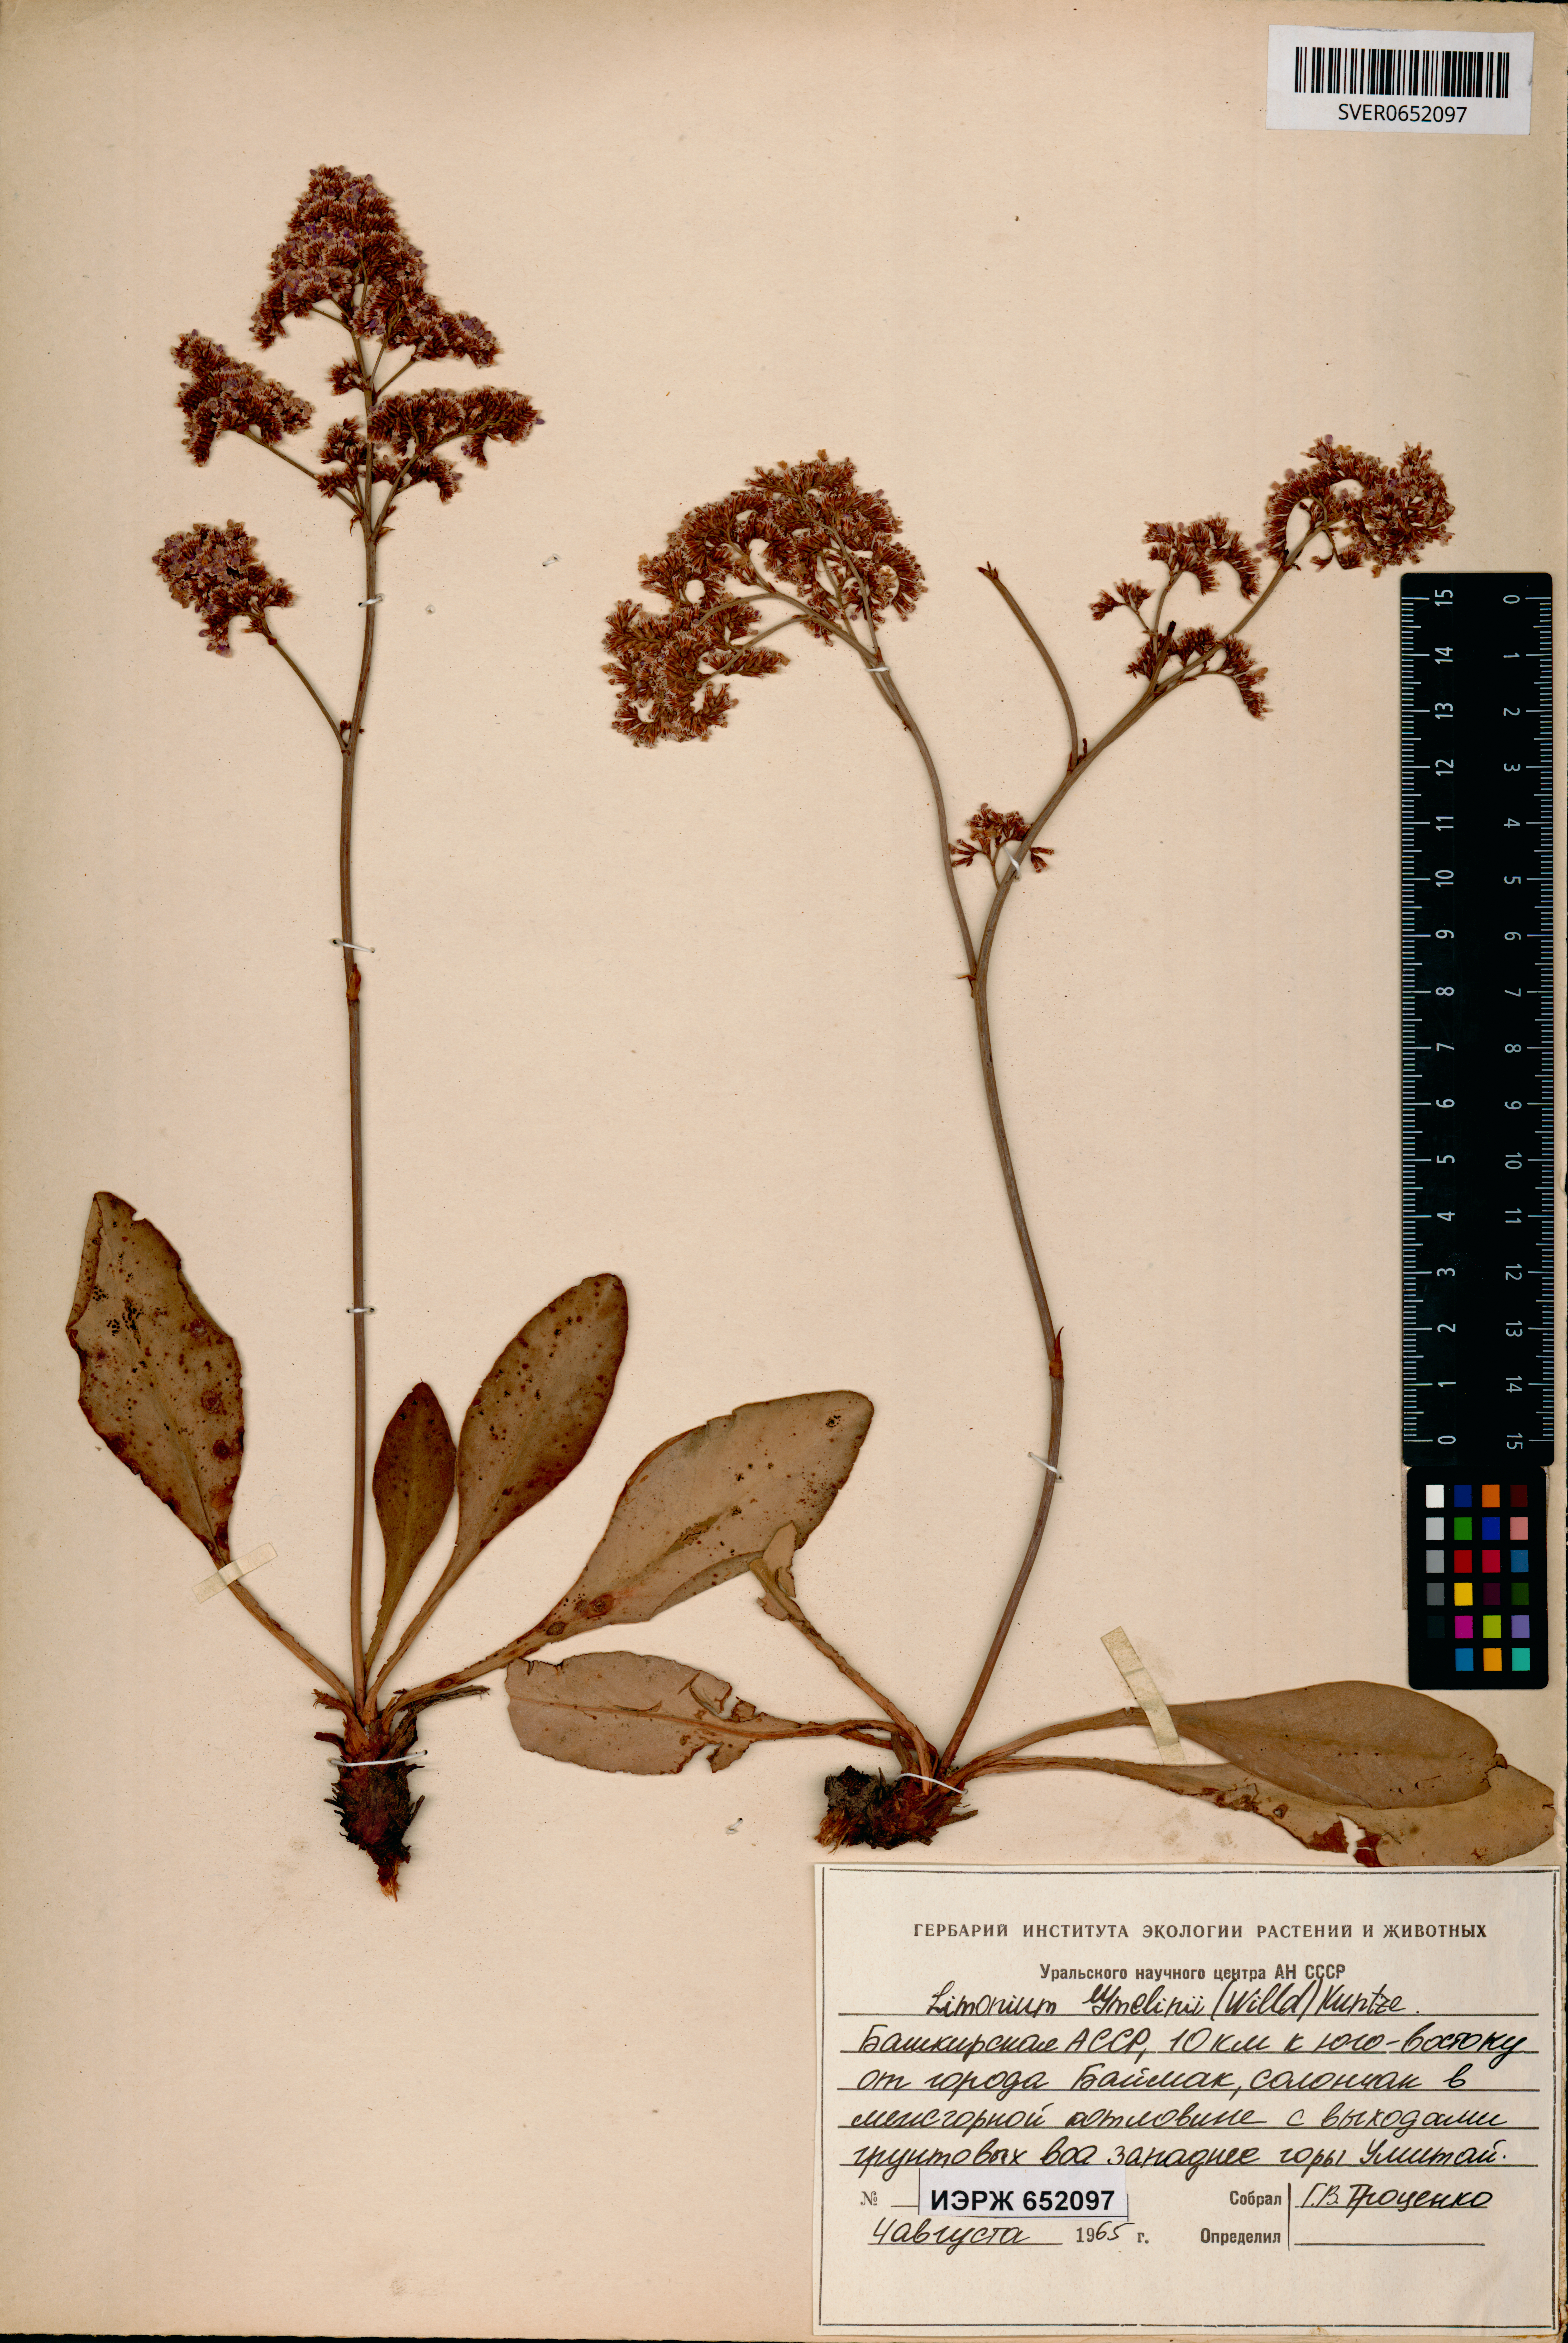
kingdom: Plantae
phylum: Tracheophyta
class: Magnoliopsida
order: Caryophyllales
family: Plumbaginaceae
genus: Limonium
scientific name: Limonium gmelini
